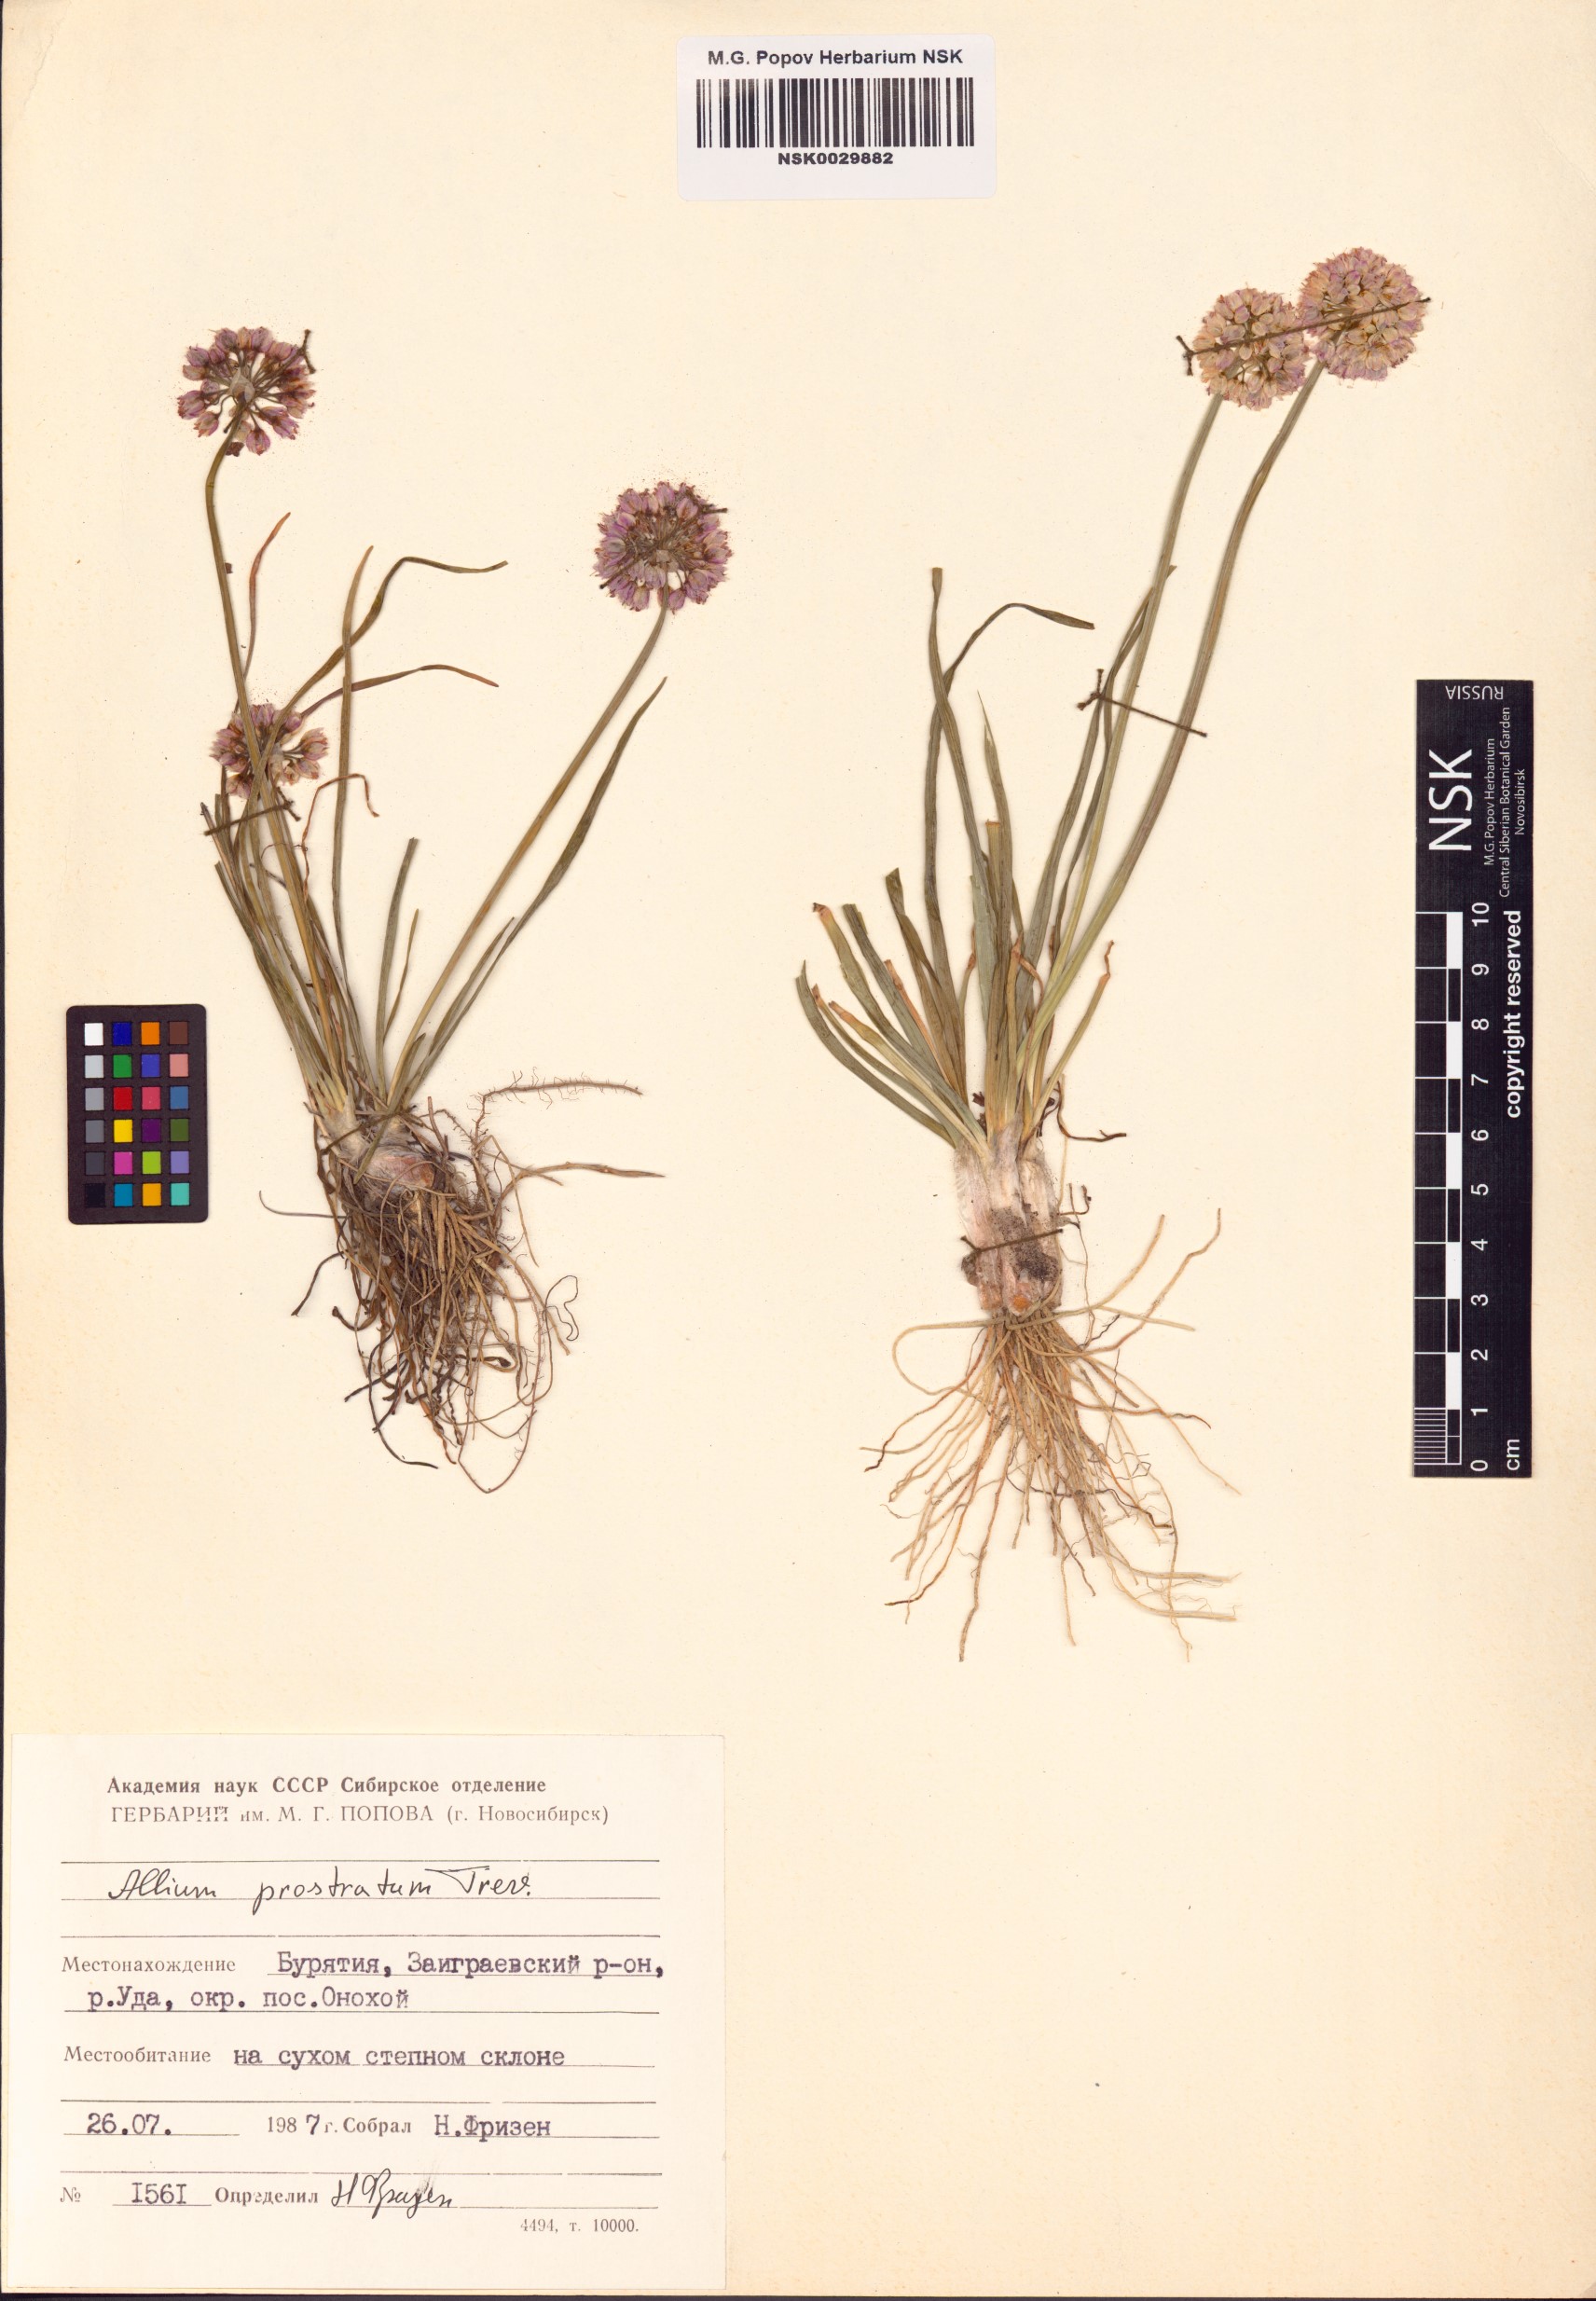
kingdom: Plantae
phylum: Tracheophyta
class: Liliopsida
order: Asparagales
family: Amaryllidaceae
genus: Allium
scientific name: Allium prostratum
